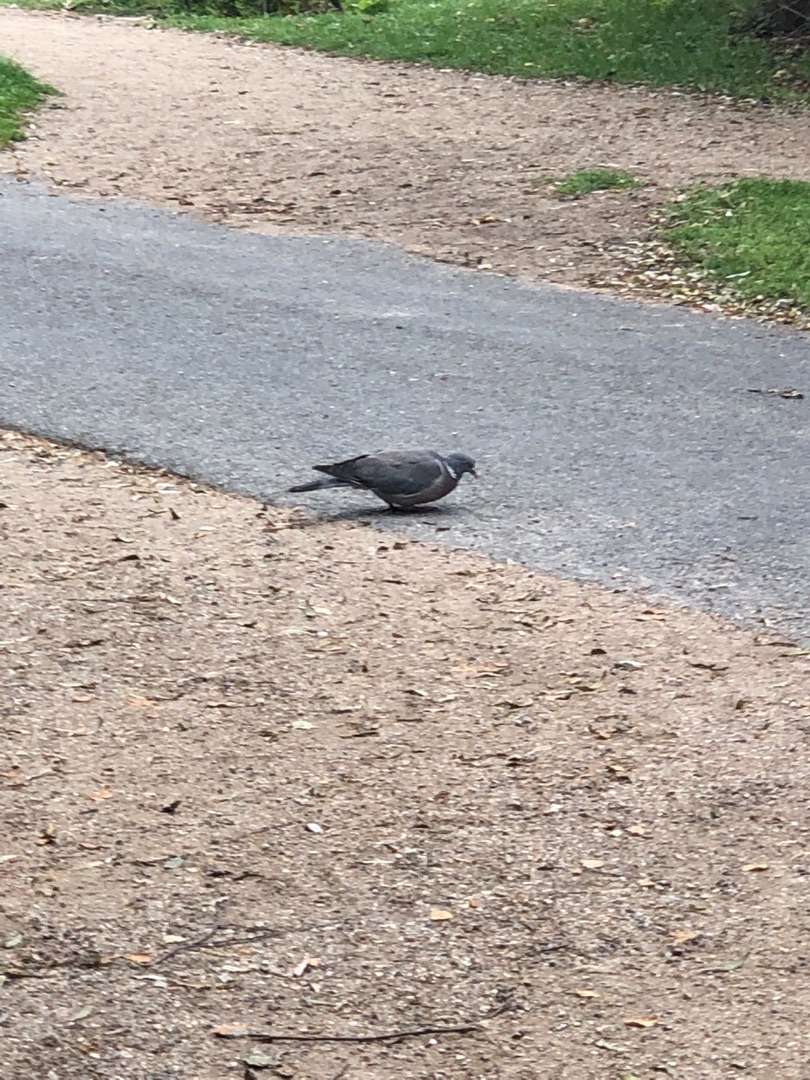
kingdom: Animalia
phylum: Chordata
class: Aves
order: Columbiformes
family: Columbidae
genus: Columba
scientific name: Columba palumbus
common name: Ringdue
